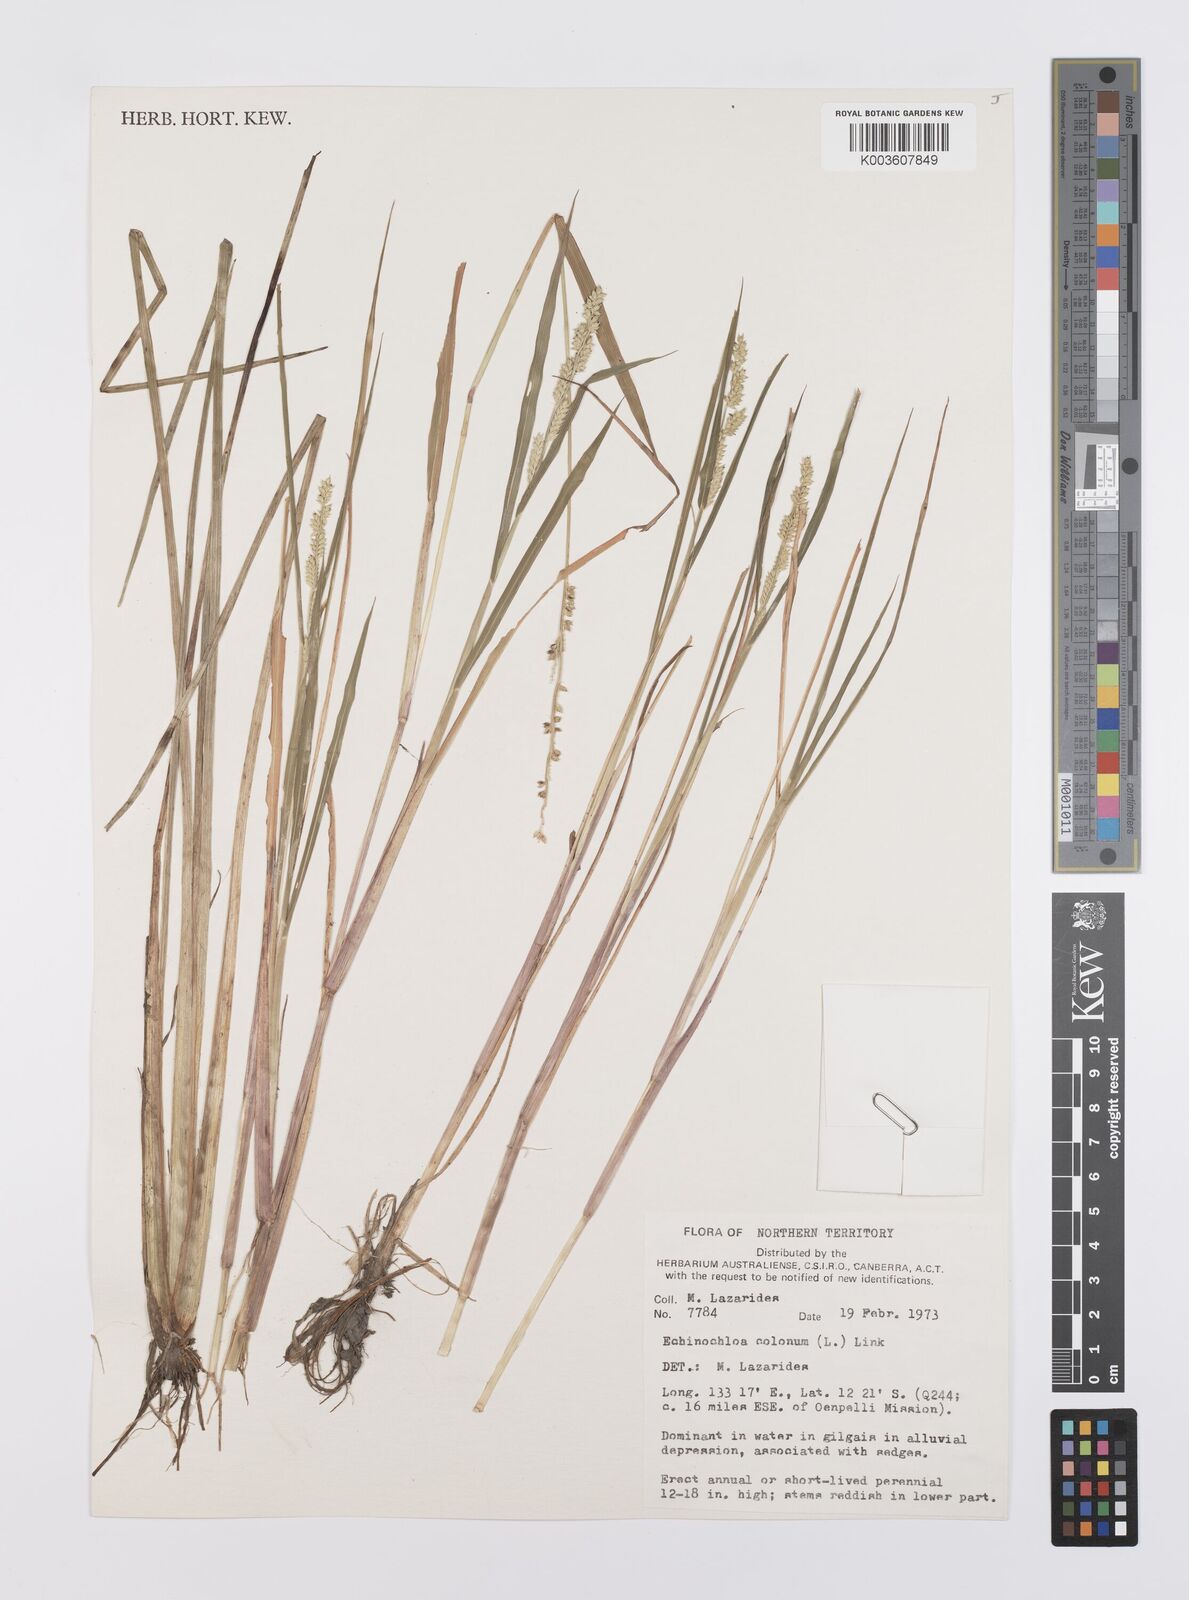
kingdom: Plantae
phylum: Tracheophyta
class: Liliopsida
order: Poales
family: Poaceae
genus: Echinochloa
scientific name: Echinochloa colonum
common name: Jungle rice
